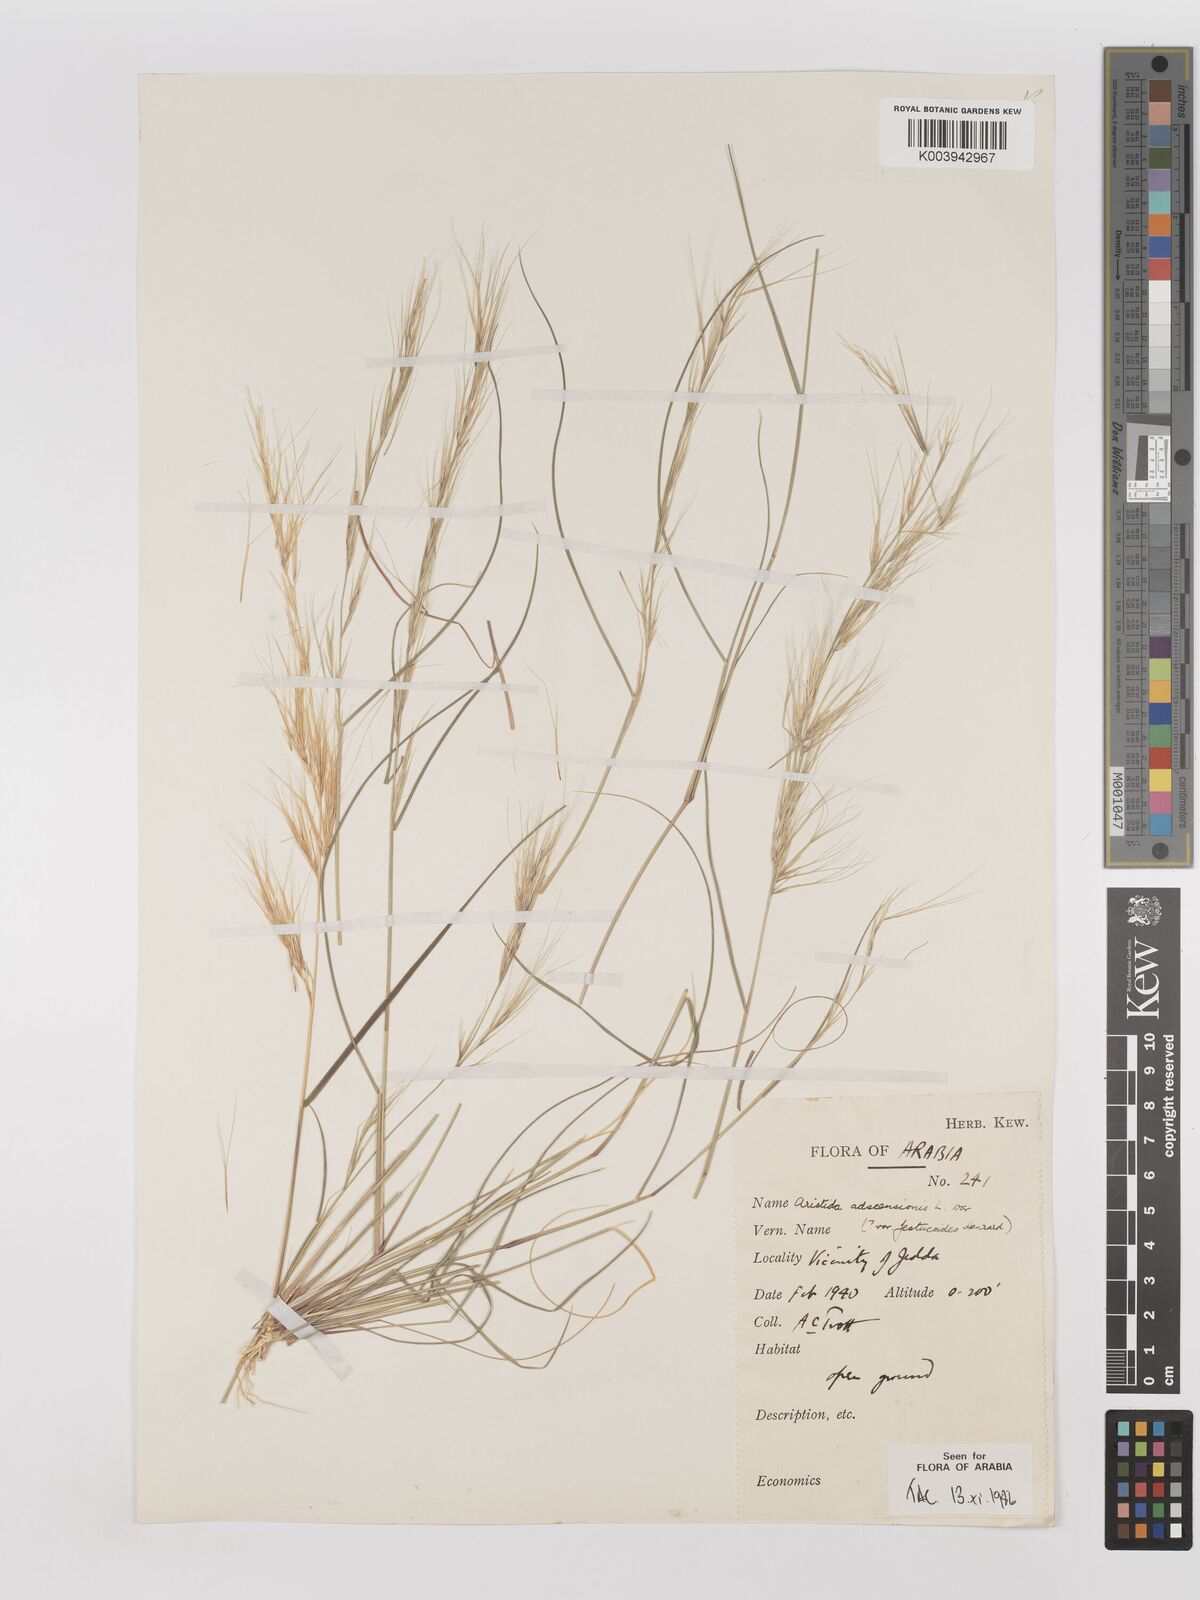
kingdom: Plantae
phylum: Tracheophyta
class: Liliopsida
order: Poales
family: Poaceae
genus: Aristida
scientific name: Aristida adscensionis
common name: Sixweeks threeawn
